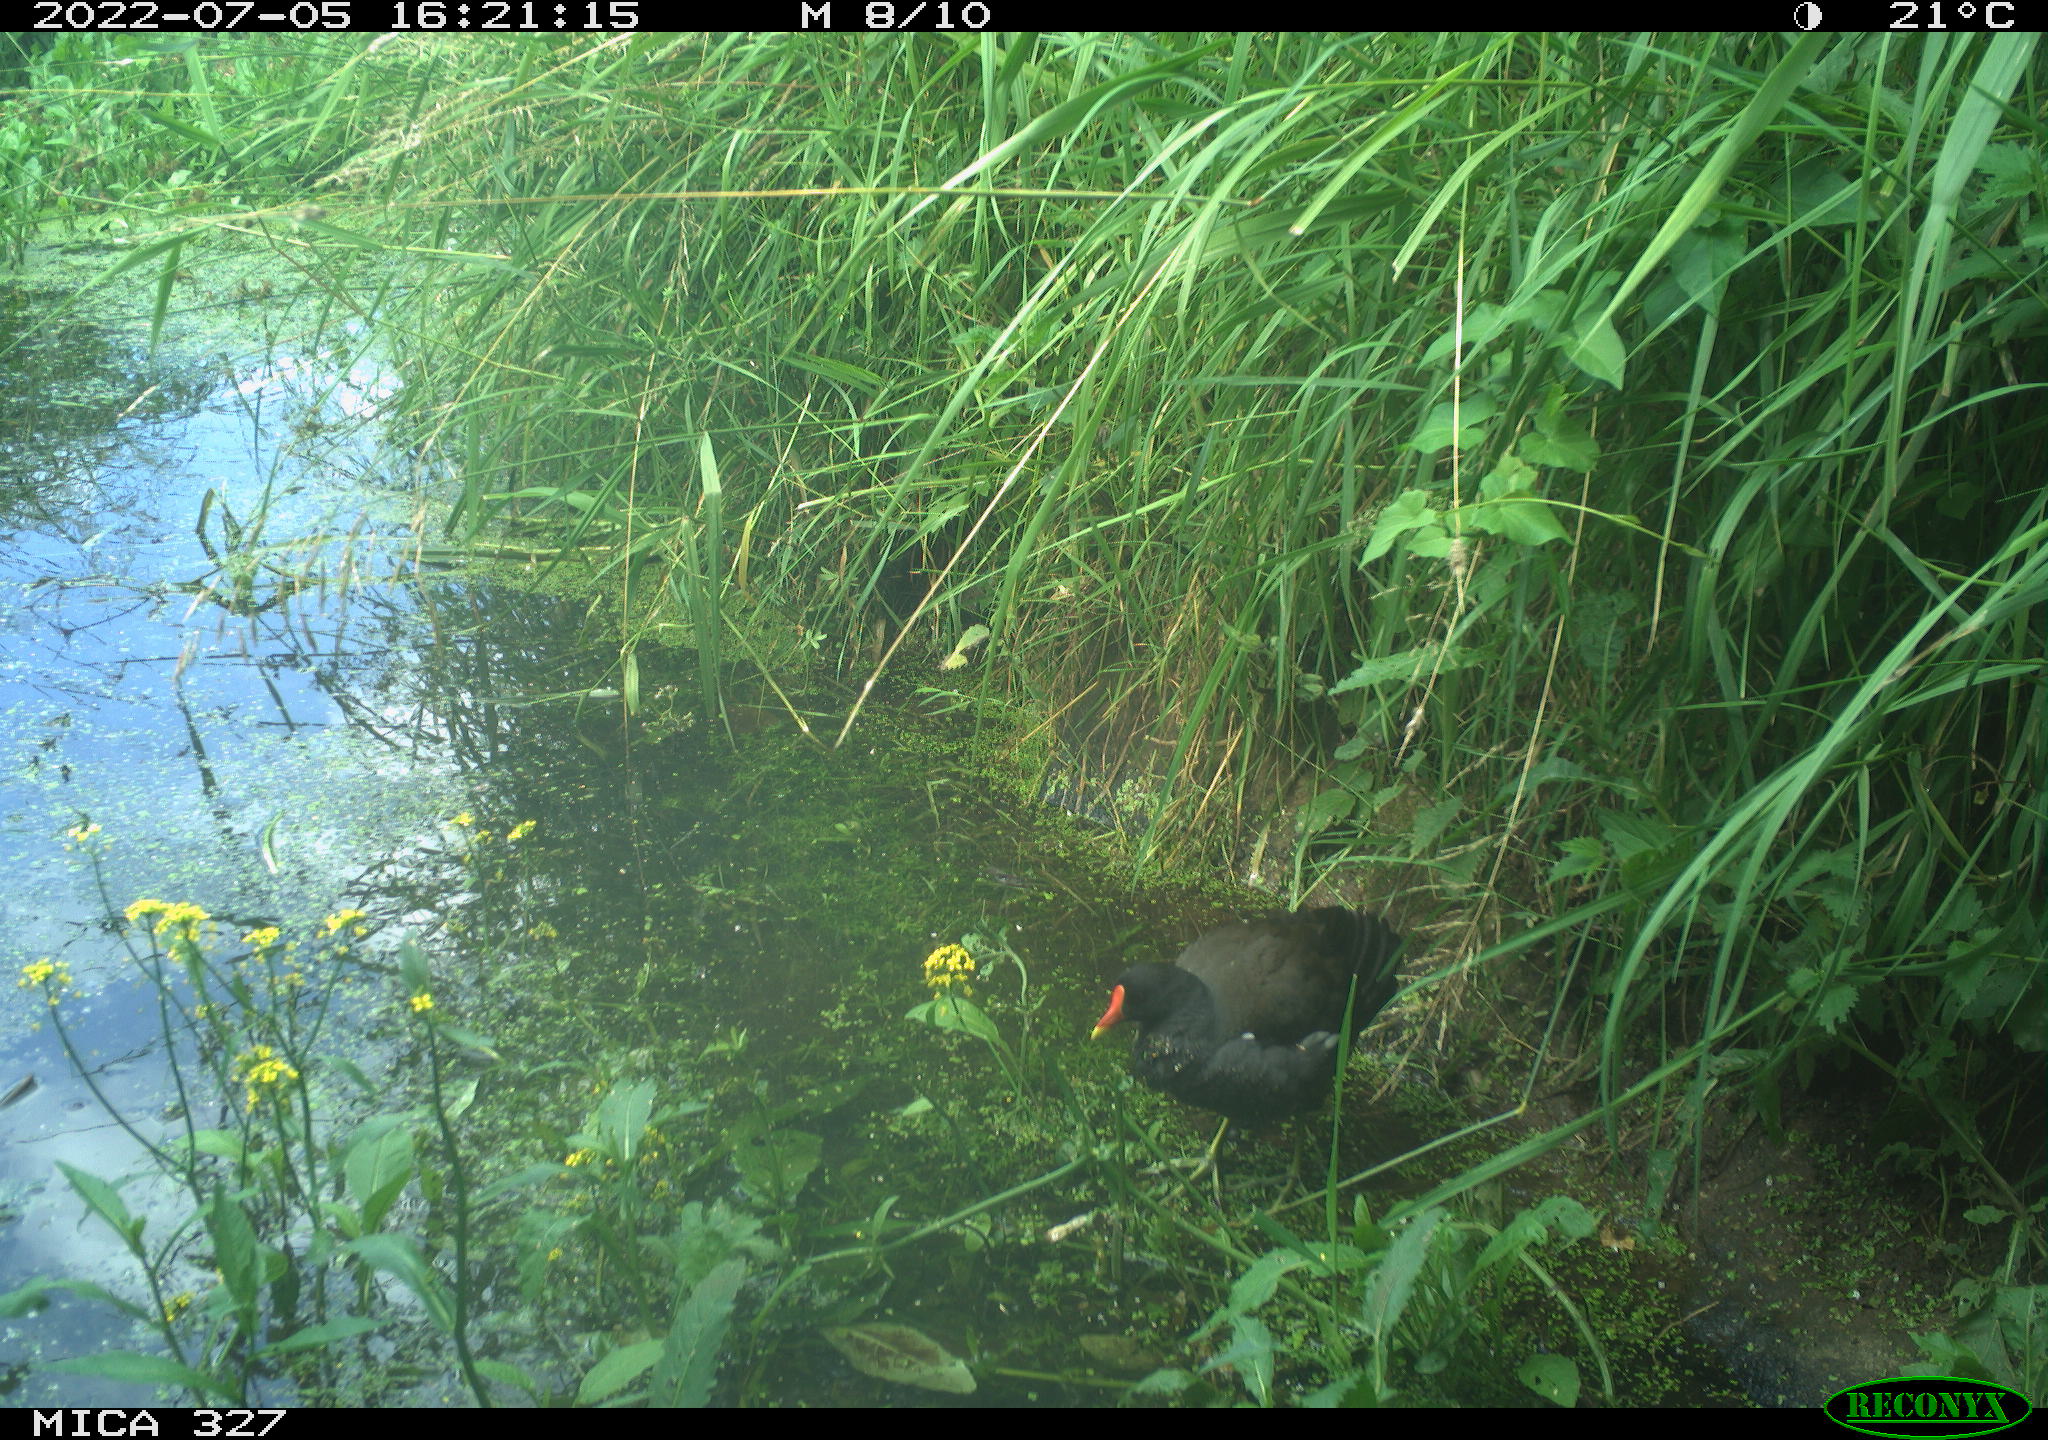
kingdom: Animalia
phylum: Chordata
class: Aves
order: Gruiformes
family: Rallidae
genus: Gallinula
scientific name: Gallinula chloropus
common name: Common moorhen
